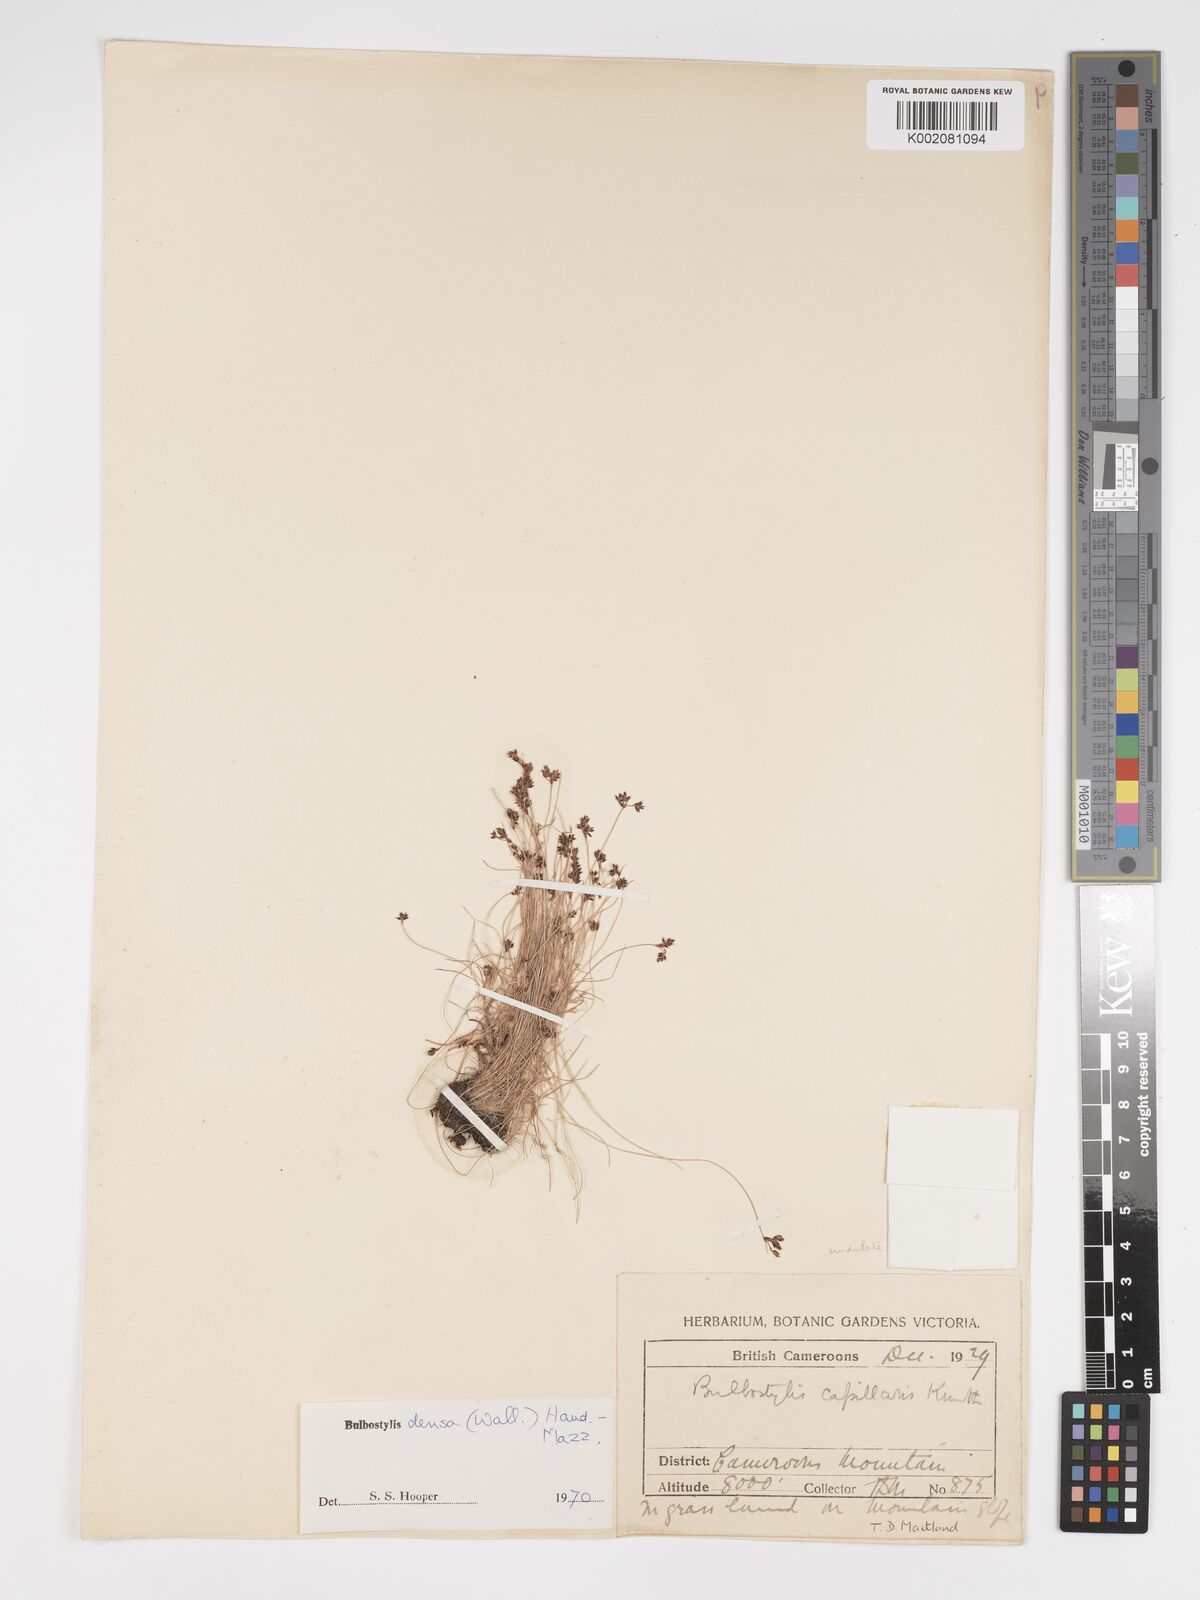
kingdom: Plantae
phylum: Tracheophyta
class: Liliopsida
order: Poales
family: Cyperaceae
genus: Bulbostylis
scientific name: Bulbostylis densa
